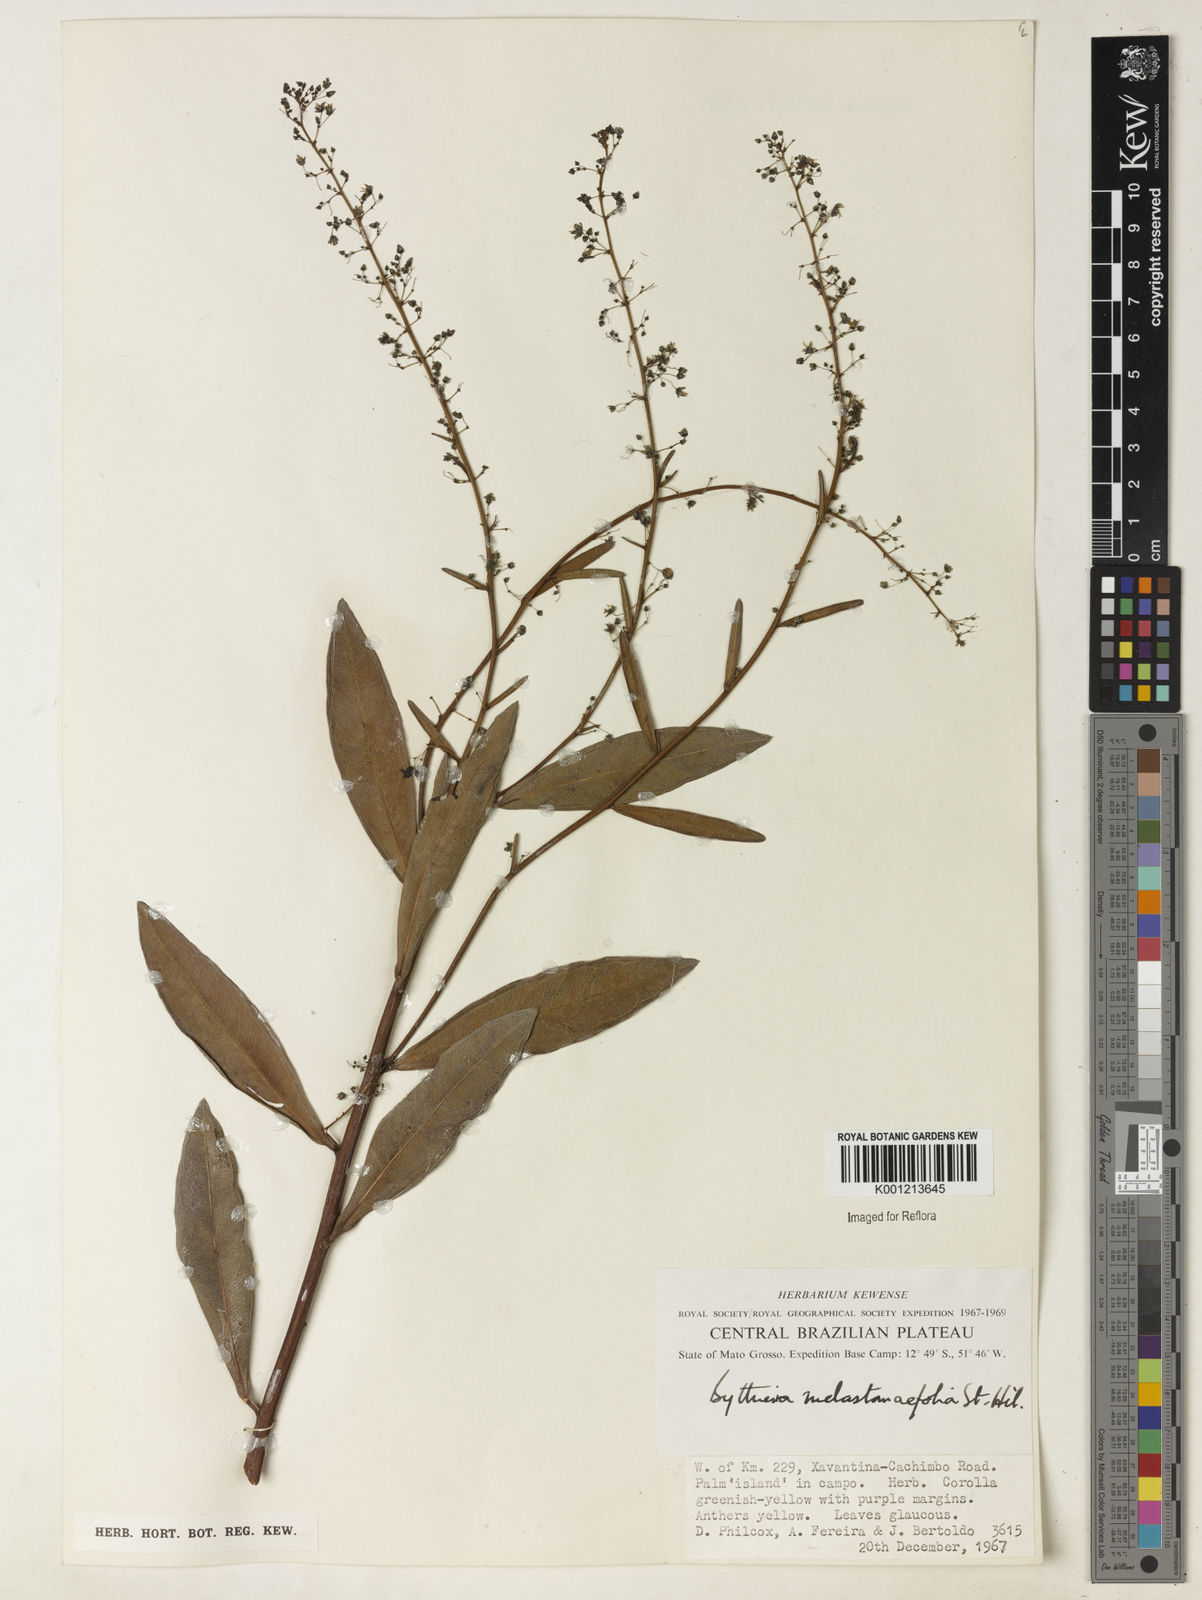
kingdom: Plantae
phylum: Tracheophyta
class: Magnoliopsida
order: Malvales
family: Malvaceae
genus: Byttneria
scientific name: Byttneria melastomifolia
